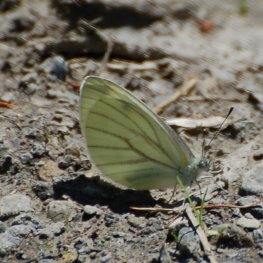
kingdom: Animalia
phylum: Arthropoda
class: Insecta
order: Lepidoptera
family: Pieridae
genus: Pieris
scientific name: Pieris oleracea
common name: Mustard White
